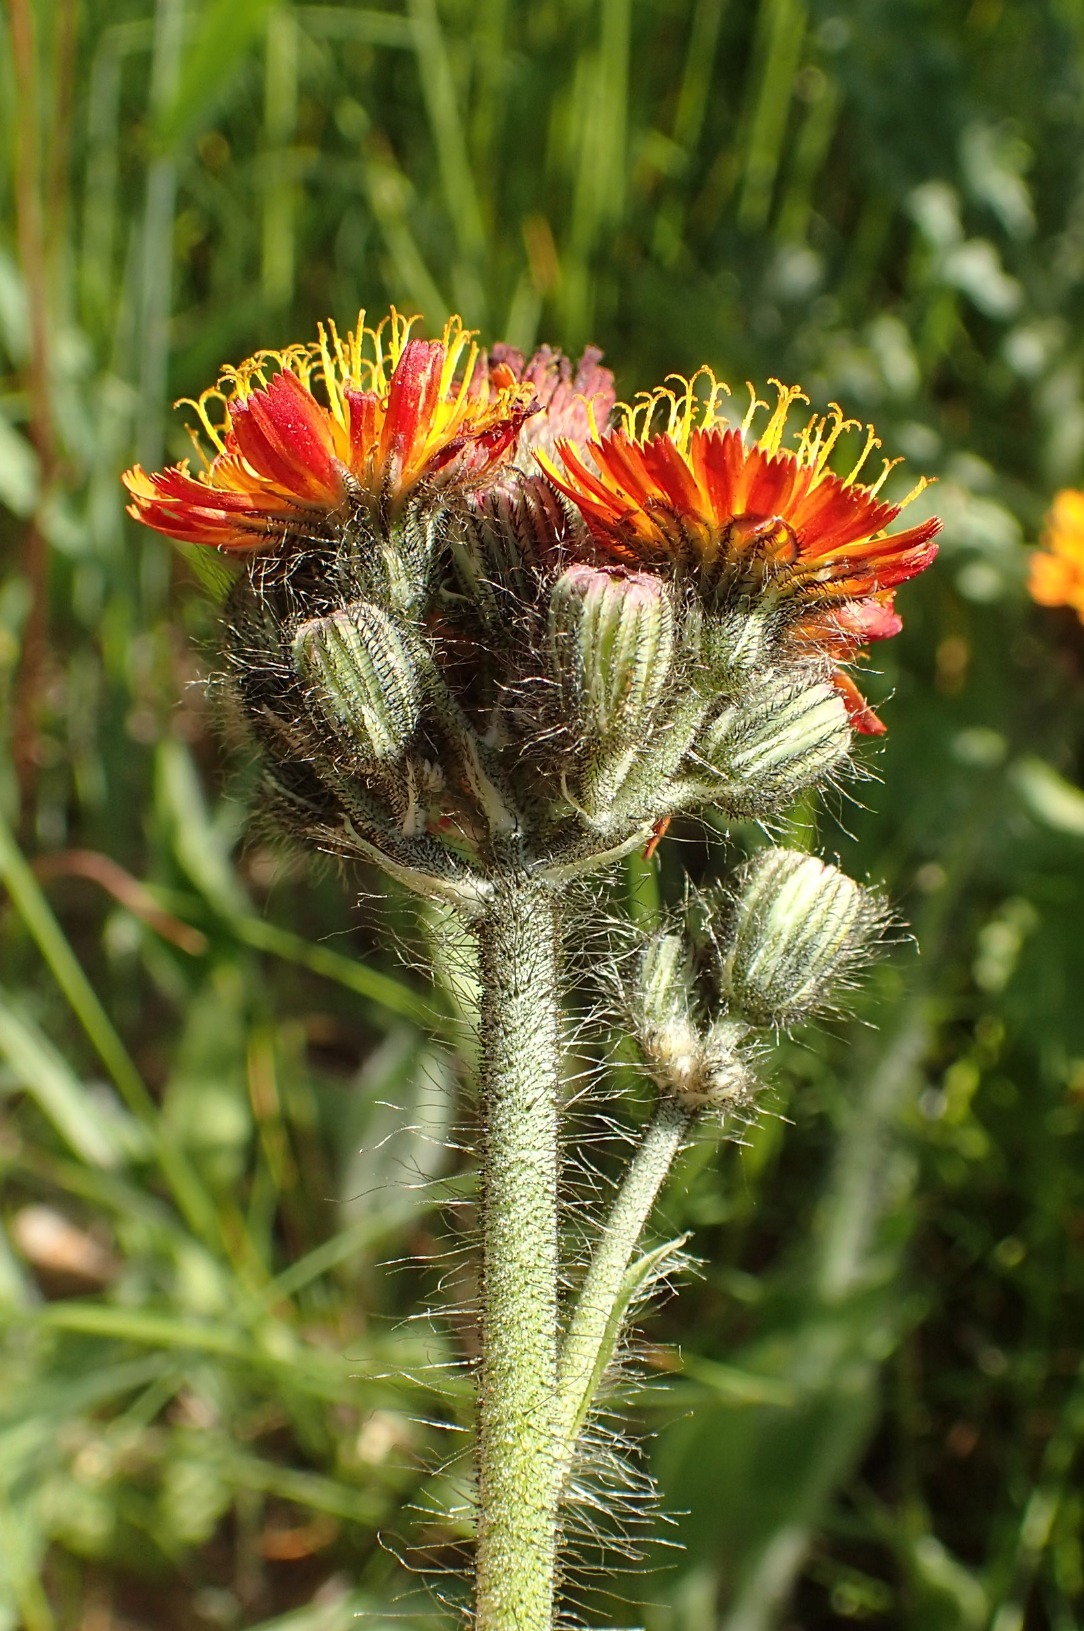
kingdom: Plantae
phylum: Tracheophyta
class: Magnoliopsida
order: Asterales
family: Asteraceae
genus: Pilosella
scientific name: Pilosella aurantiaca
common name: Pomerans-høgeurt
